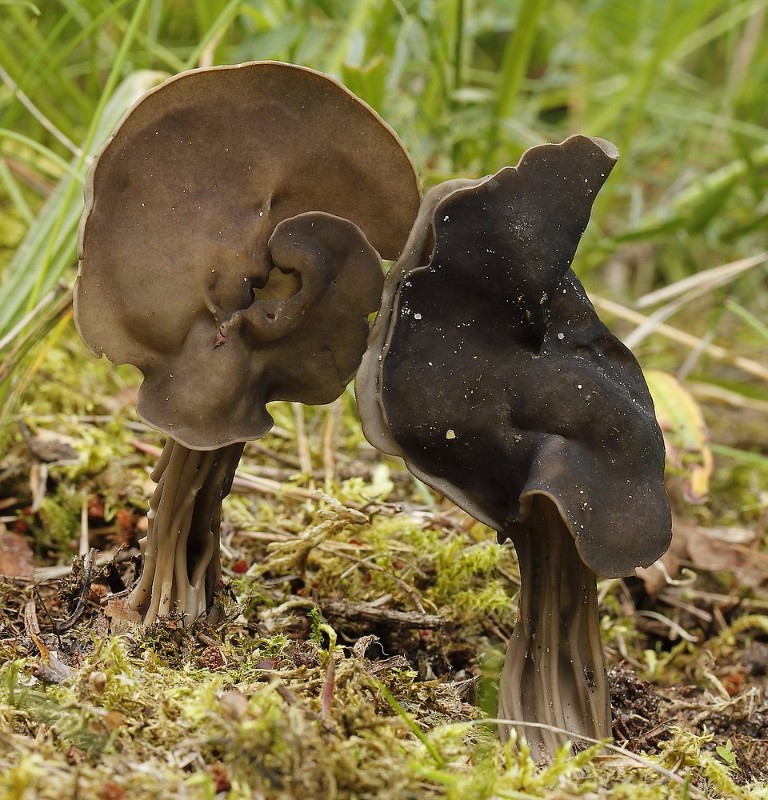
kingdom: Fungi
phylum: Ascomycota
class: Pezizomycetes
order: Pezizales
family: Helvellaceae
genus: Helvella
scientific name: Helvella lacunosa
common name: grubet foldhat
